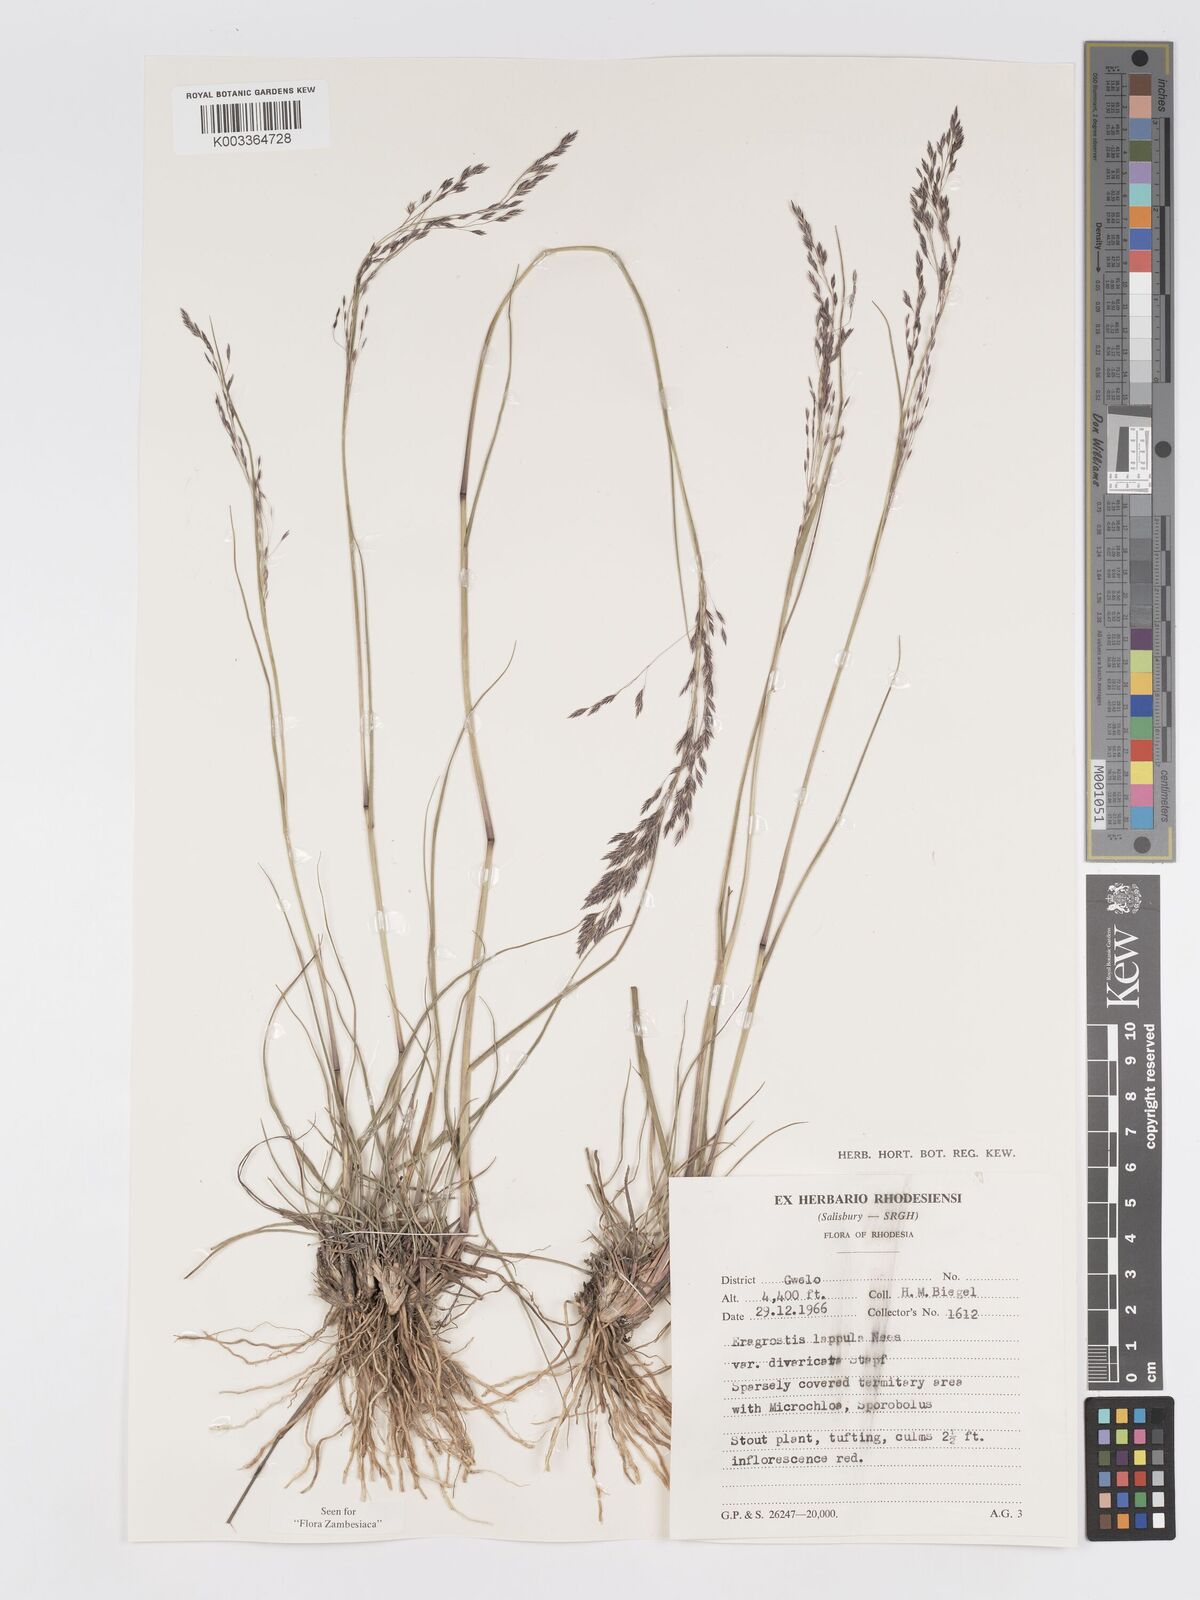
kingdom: Plantae
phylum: Tracheophyta
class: Liliopsida
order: Poales
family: Poaceae
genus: Eragrostis
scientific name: Eragrostis lappula
